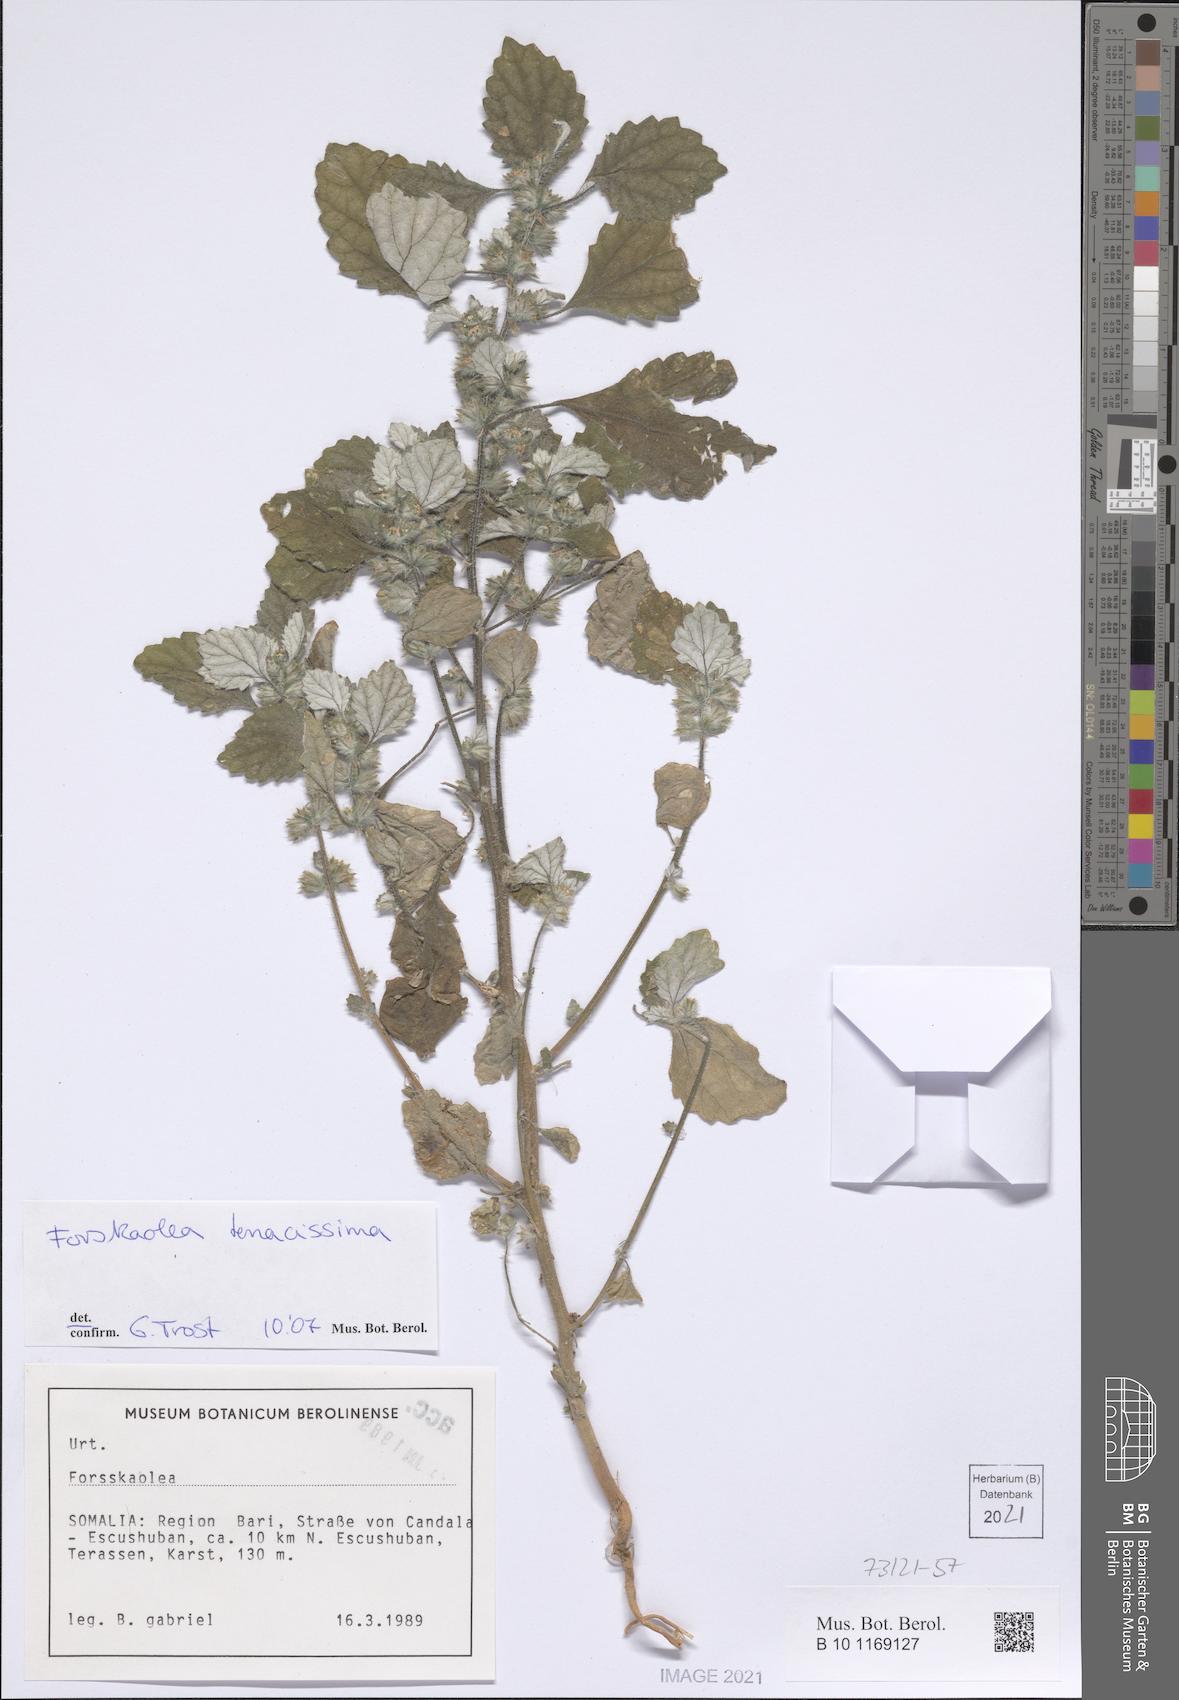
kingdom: Plantae
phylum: Tracheophyta
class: Magnoliopsida
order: Rosales
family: Urticaceae
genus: Forsskaolea
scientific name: Forsskaolea tenacissima
